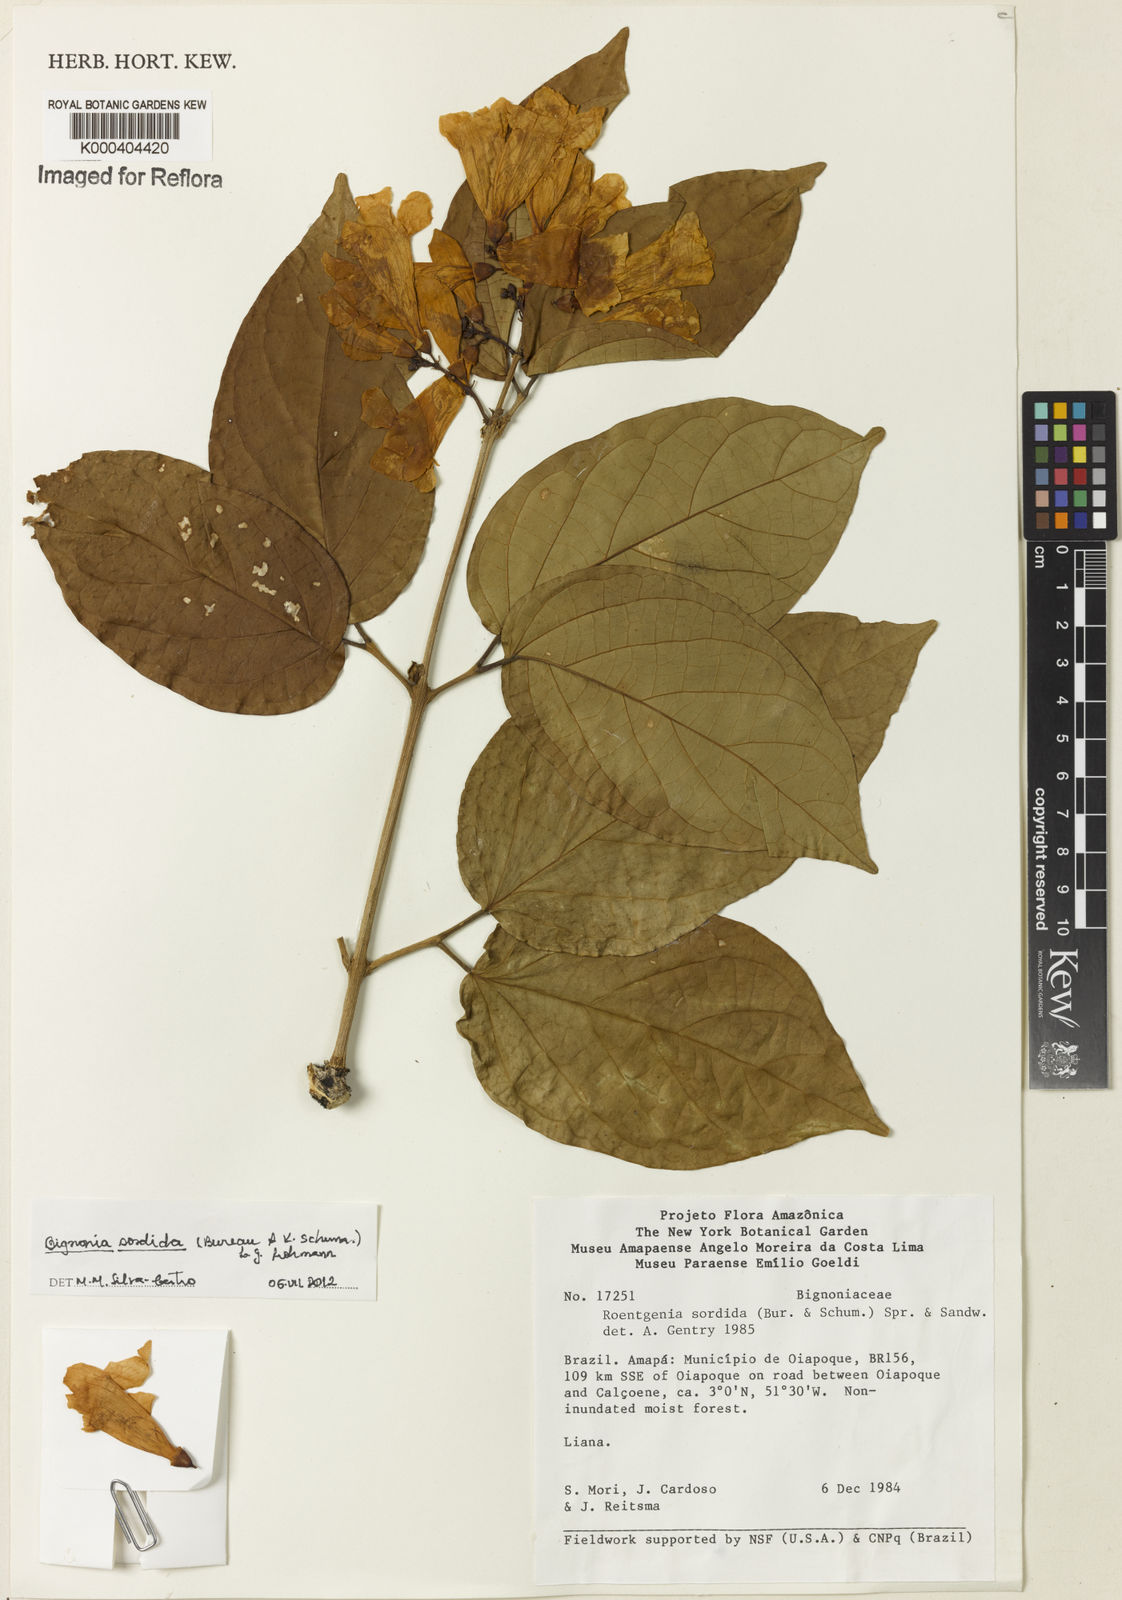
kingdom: Plantae
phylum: Tracheophyta
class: Magnoliopsida
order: Lamiales
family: Bignoniaceae
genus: Bignonia
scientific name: Bignonia sordida
